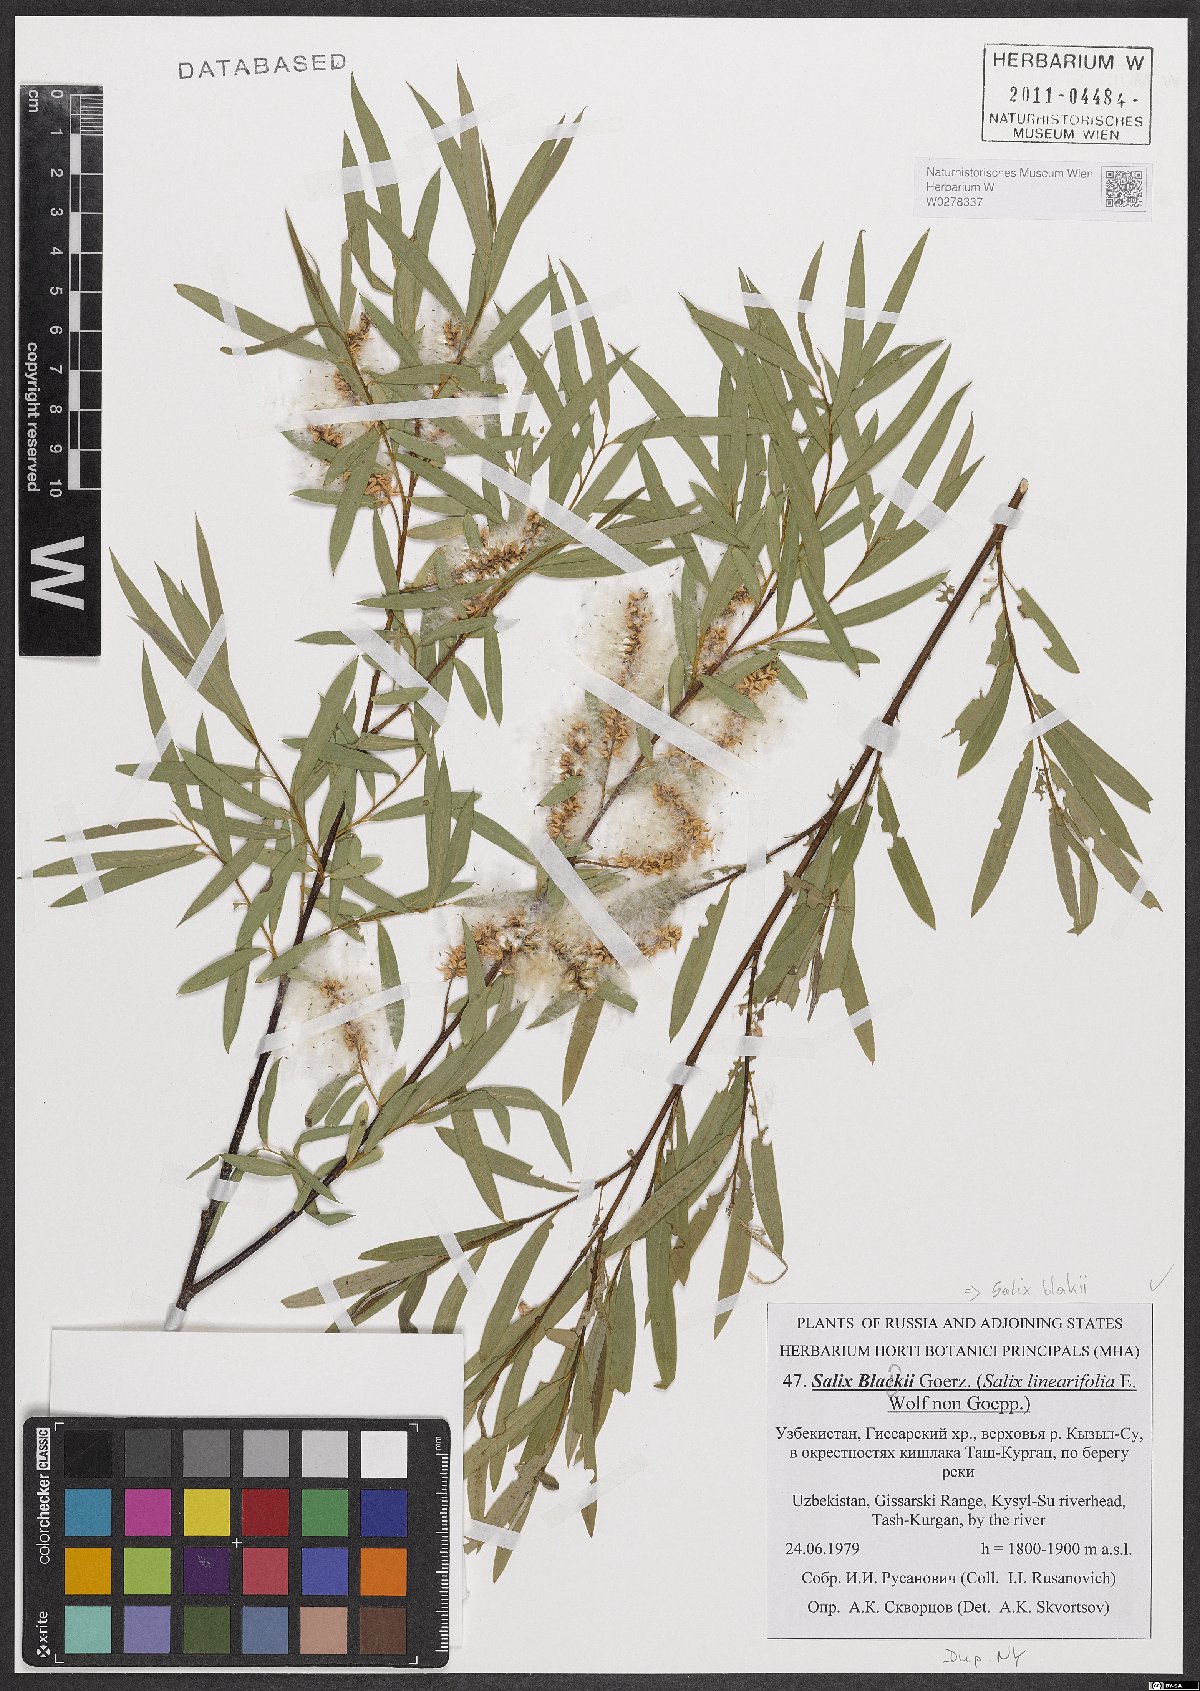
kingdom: Plantae
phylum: Tracheophyta
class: Magnoliopsida
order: Malpighiales
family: Salicaceae
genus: Salix
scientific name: Salix blakii
